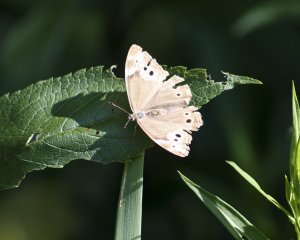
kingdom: Animalia
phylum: Arthropoda
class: Insecta
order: Lepidoptera
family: Nymphalidae
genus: Lethe
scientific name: Lethe eurydice
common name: Eyed Brown
